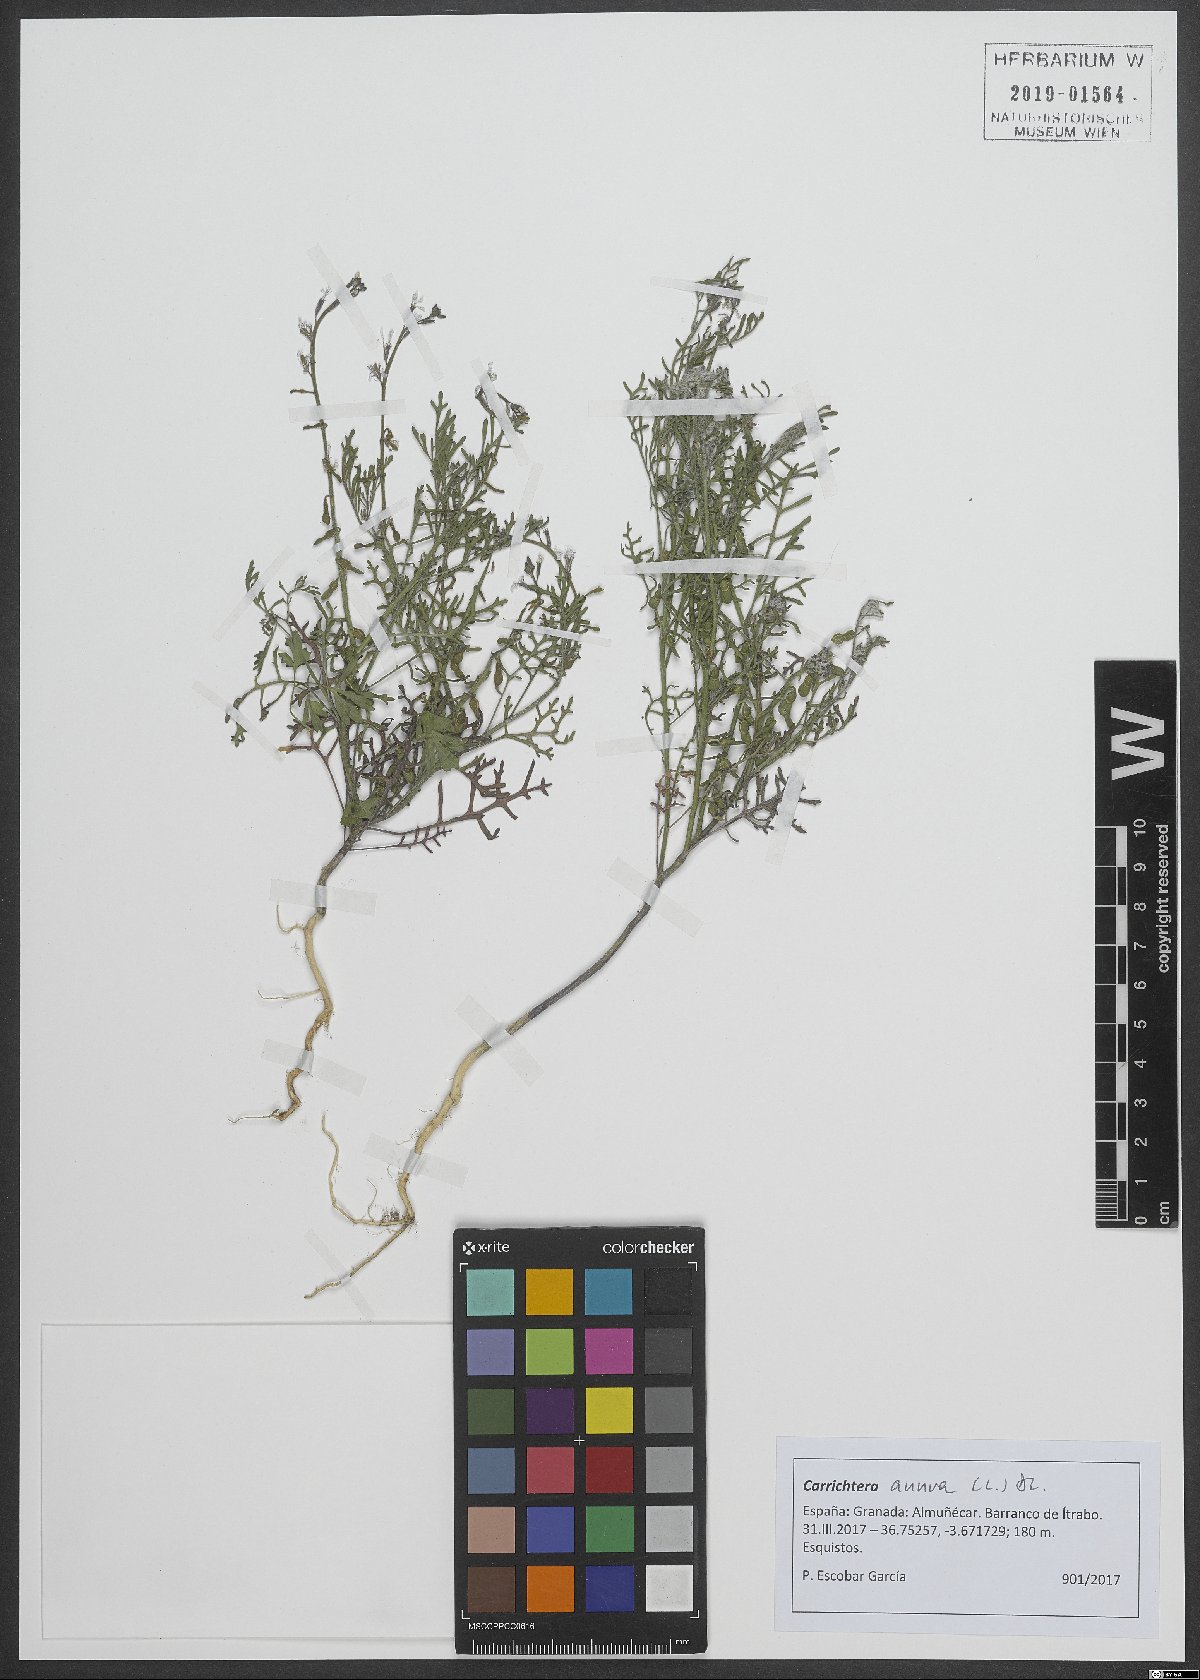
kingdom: Plantae
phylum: Tracheophyta
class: Magnoliopsida
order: Brassicales
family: Brassicaceae
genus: Carrichtera
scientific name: Carrichtera annua
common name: Cress rocket
